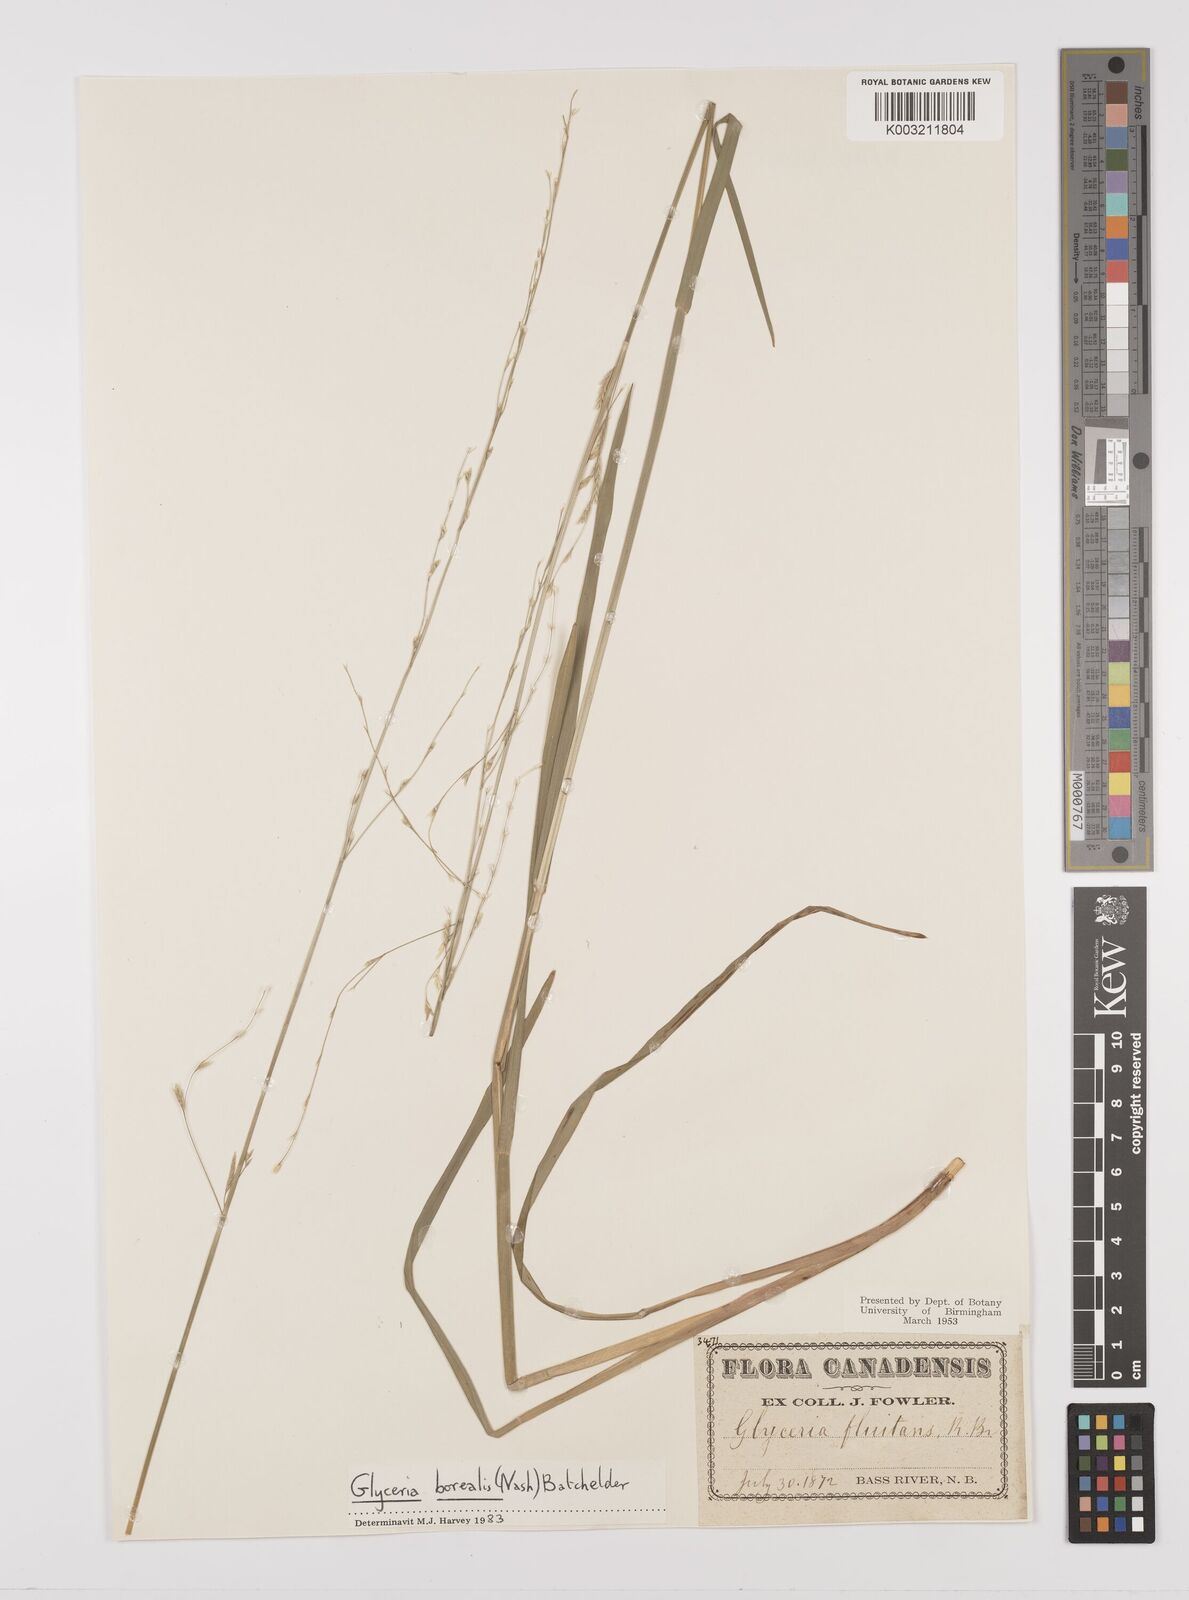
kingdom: Plantae
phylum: Tracheophyta
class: Liliopsida
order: Poales
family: Poaceae
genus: Glyceria
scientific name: Glyceria fluitans
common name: Floating sweet-grass
